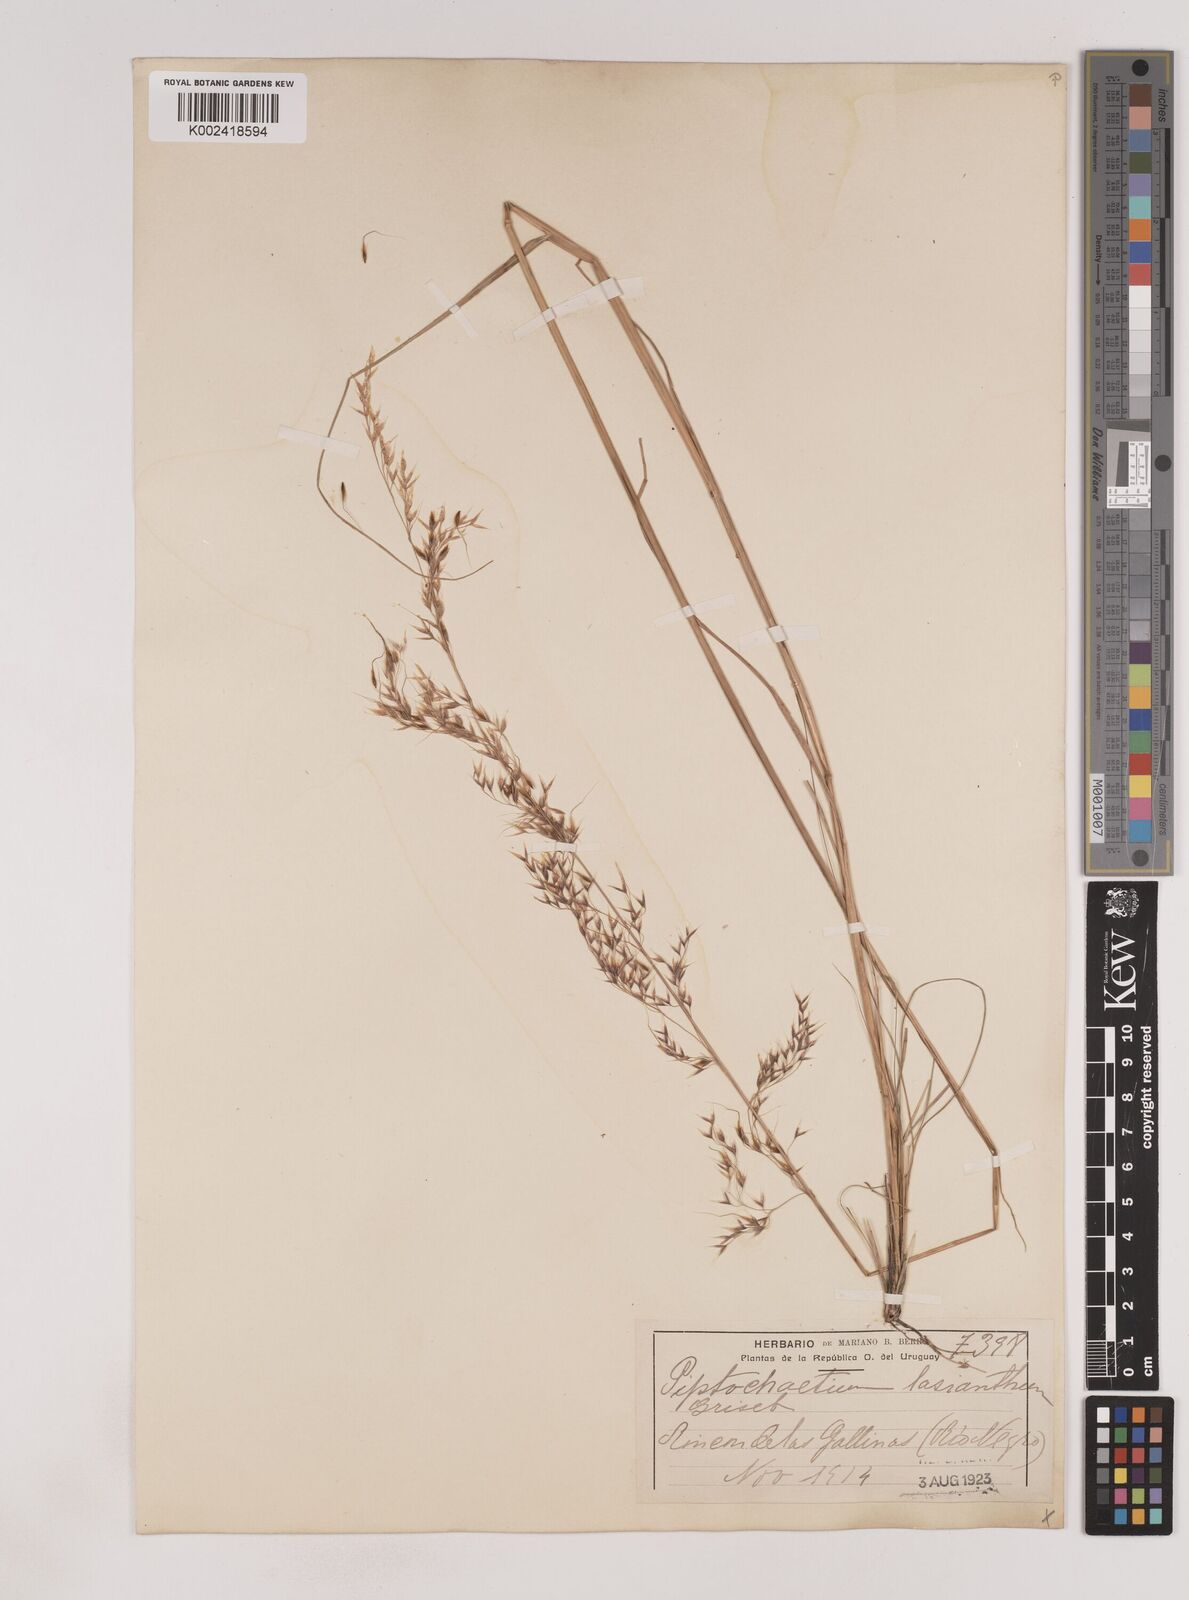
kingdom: Plantae
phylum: Tracheophyta
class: Liliopsida
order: Poales
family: Poaceae
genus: Piptochaetium
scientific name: Piptochaetium lasianthum
